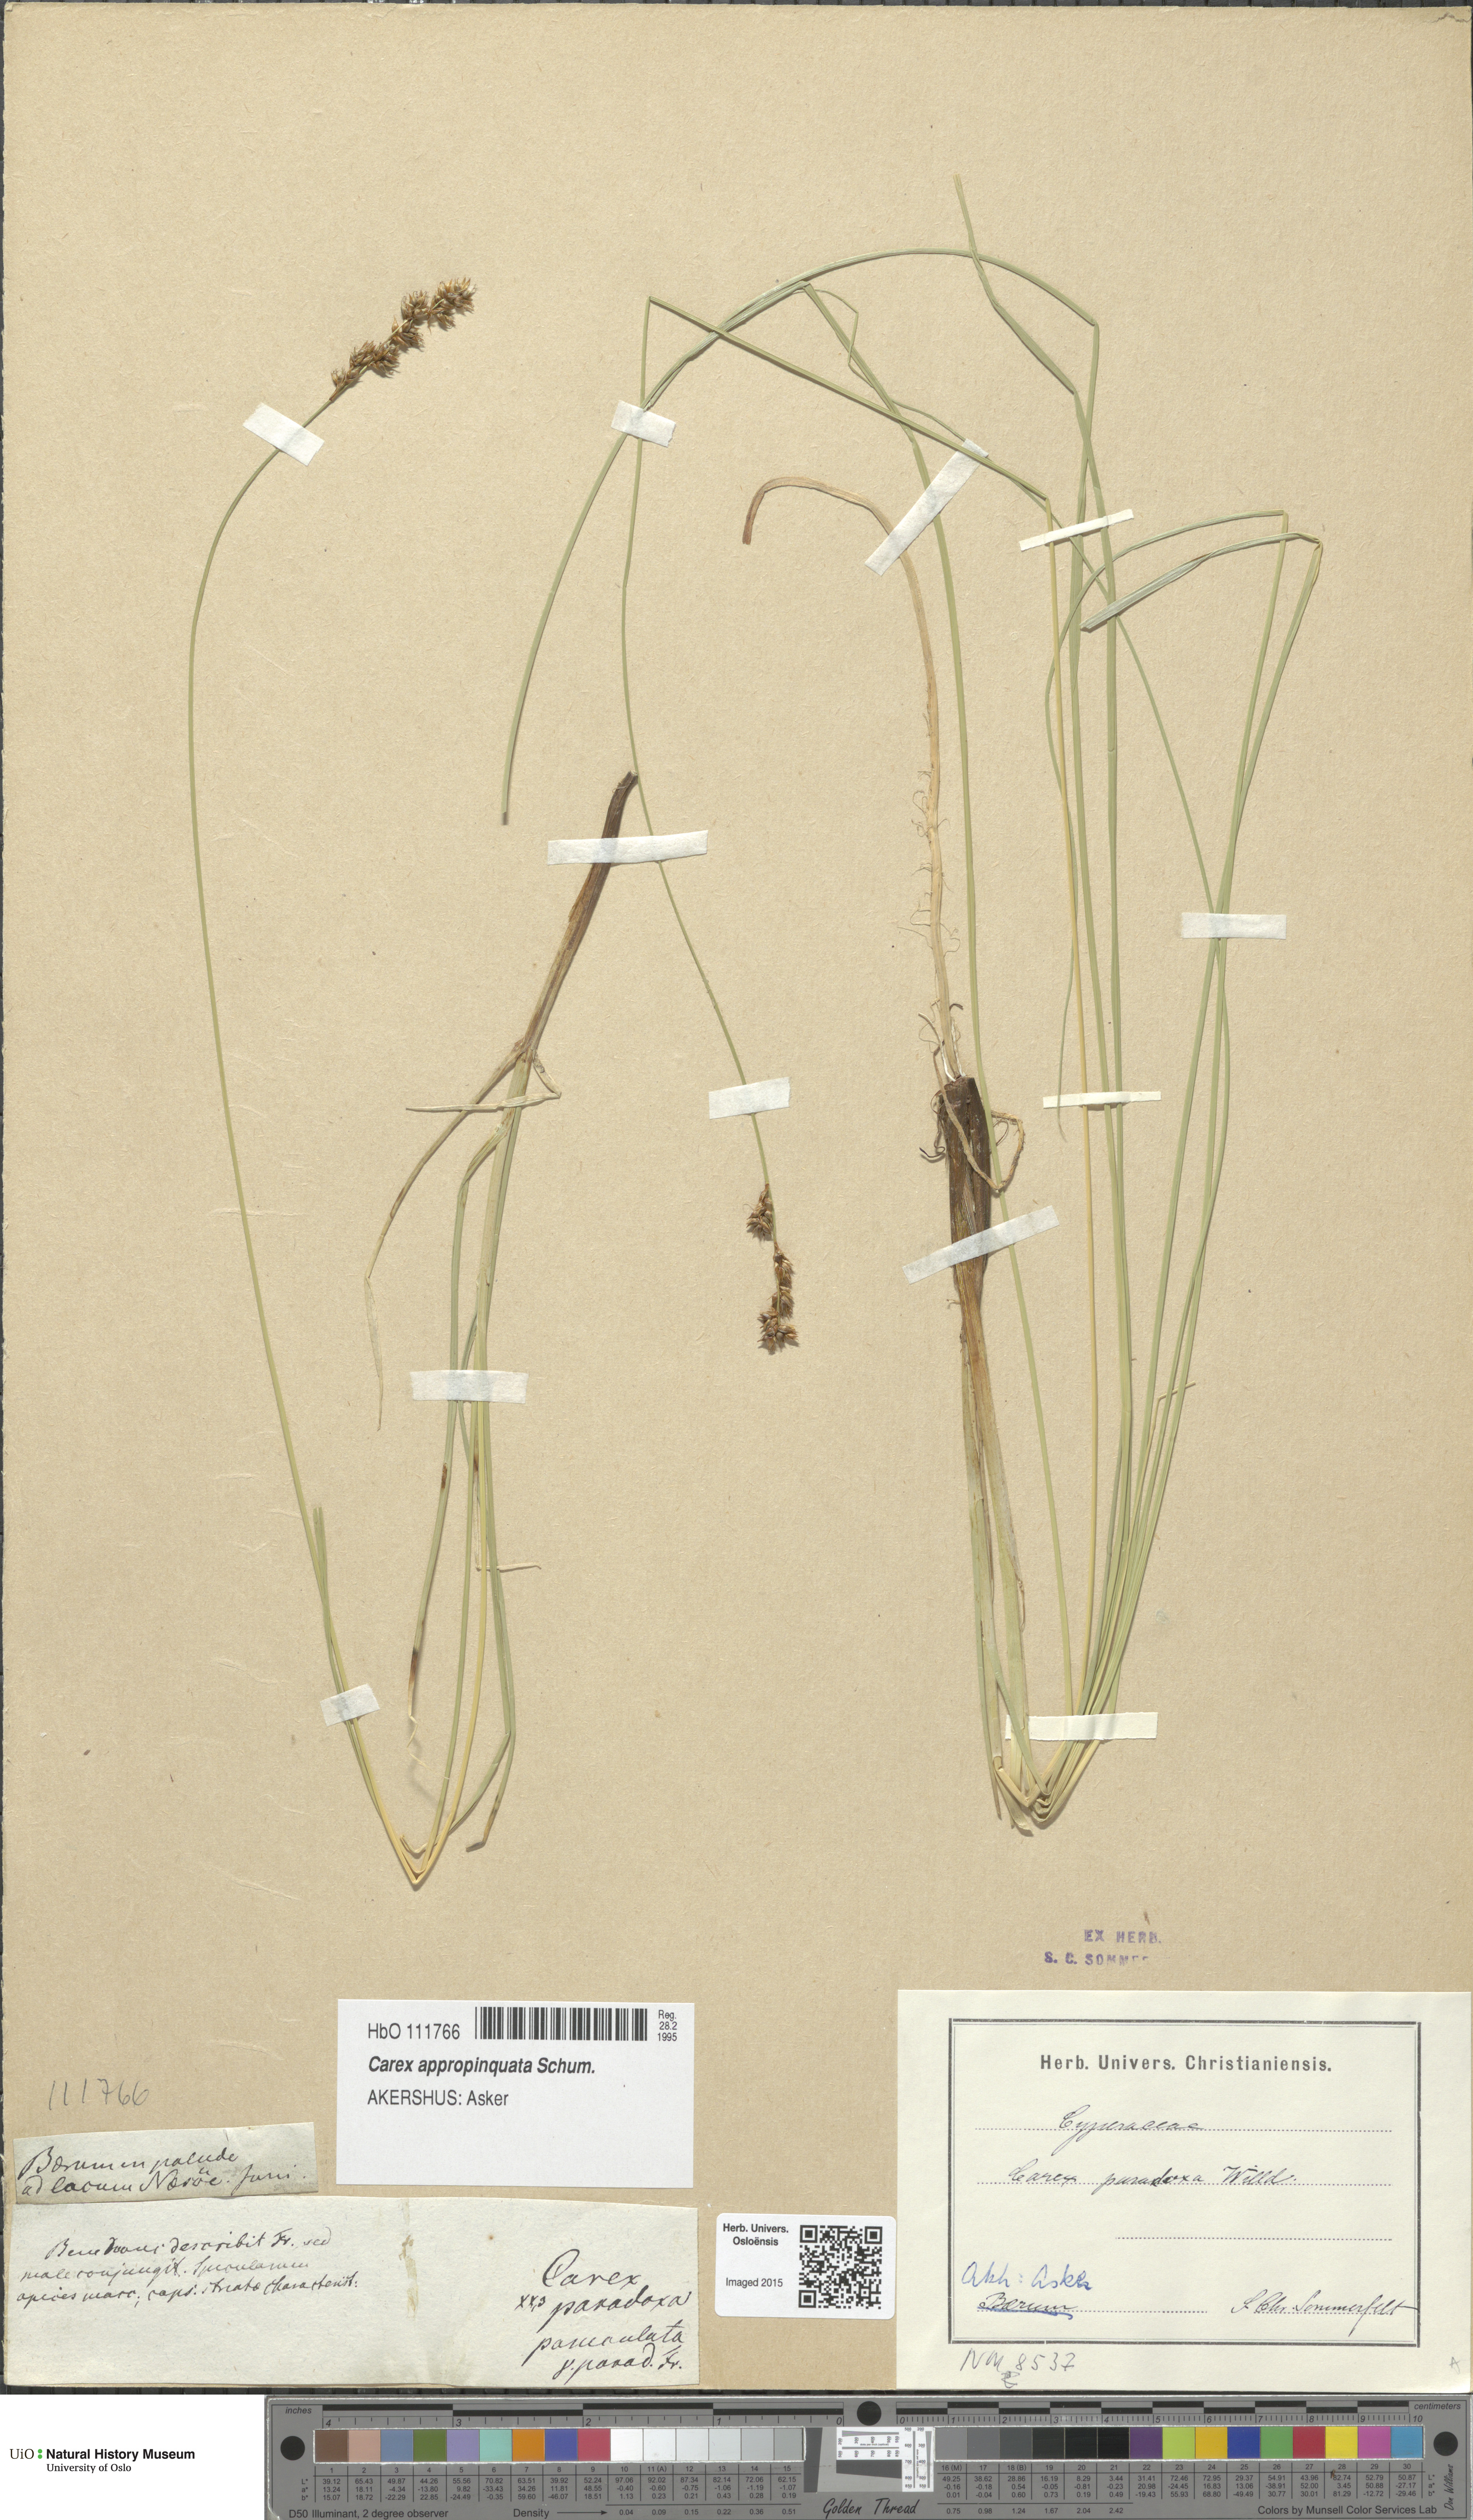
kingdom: Plantae
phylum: Tracheophyta
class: Liliopsida
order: Poales
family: Cyperaceae
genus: Carex
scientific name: Carex appropinquata
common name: Fibrous tussock-sedge
